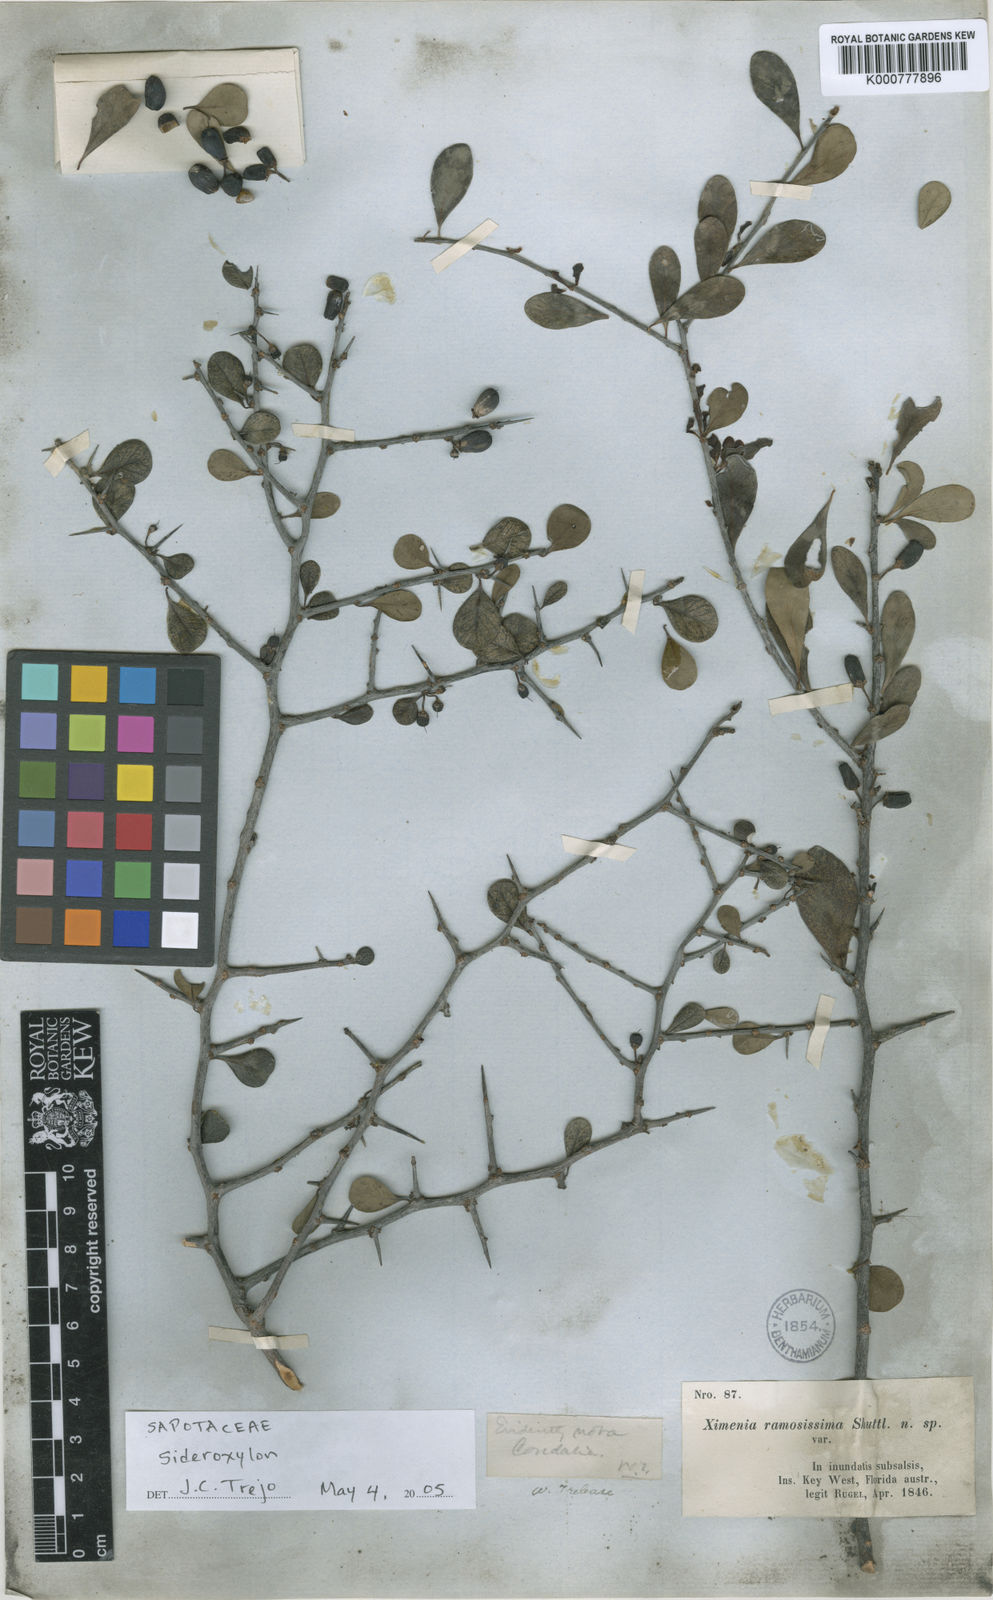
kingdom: Plantae
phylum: Tracheophyta
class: Magnoliopsida
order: Ericales
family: Sapotaceae
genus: Sideroxylon
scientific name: Sideroxylon
